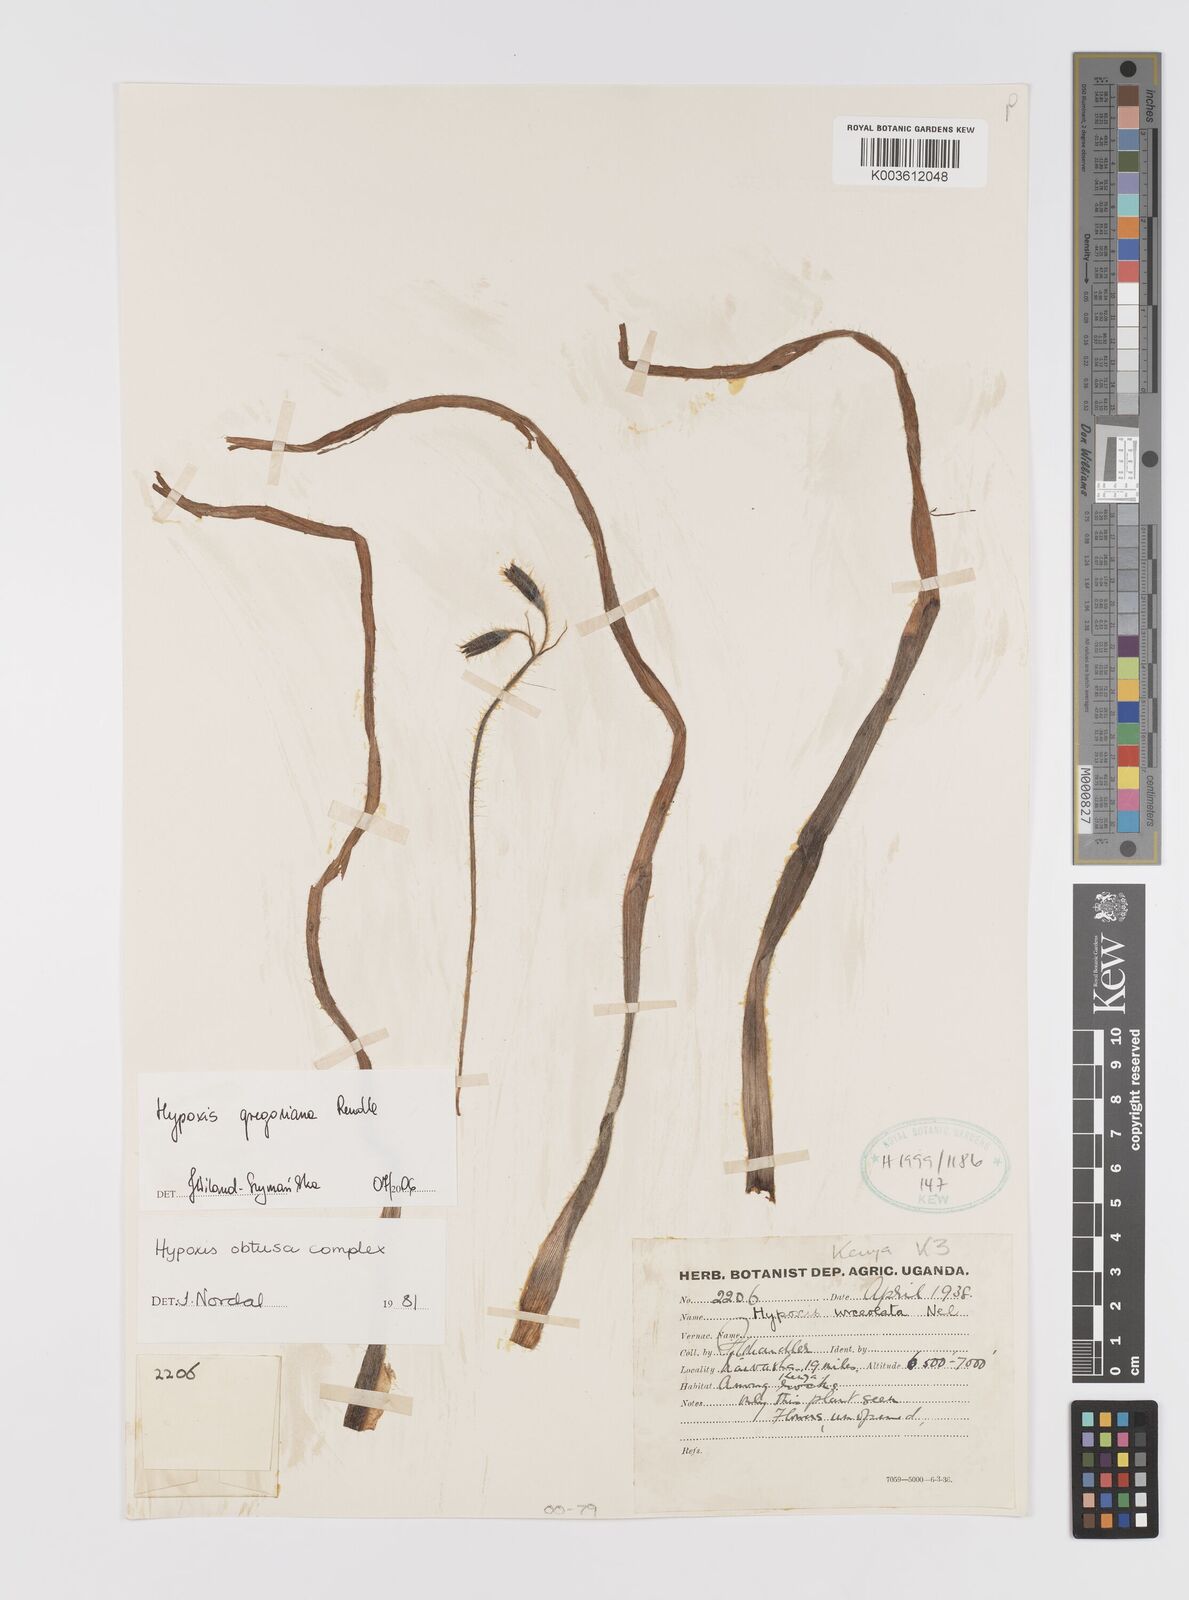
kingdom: Plantae
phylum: Tracheophyta
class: Liliopsida
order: Asparagales
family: Hypoxidaceae
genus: Hypoxis
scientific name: Hypoxis gregoriana
